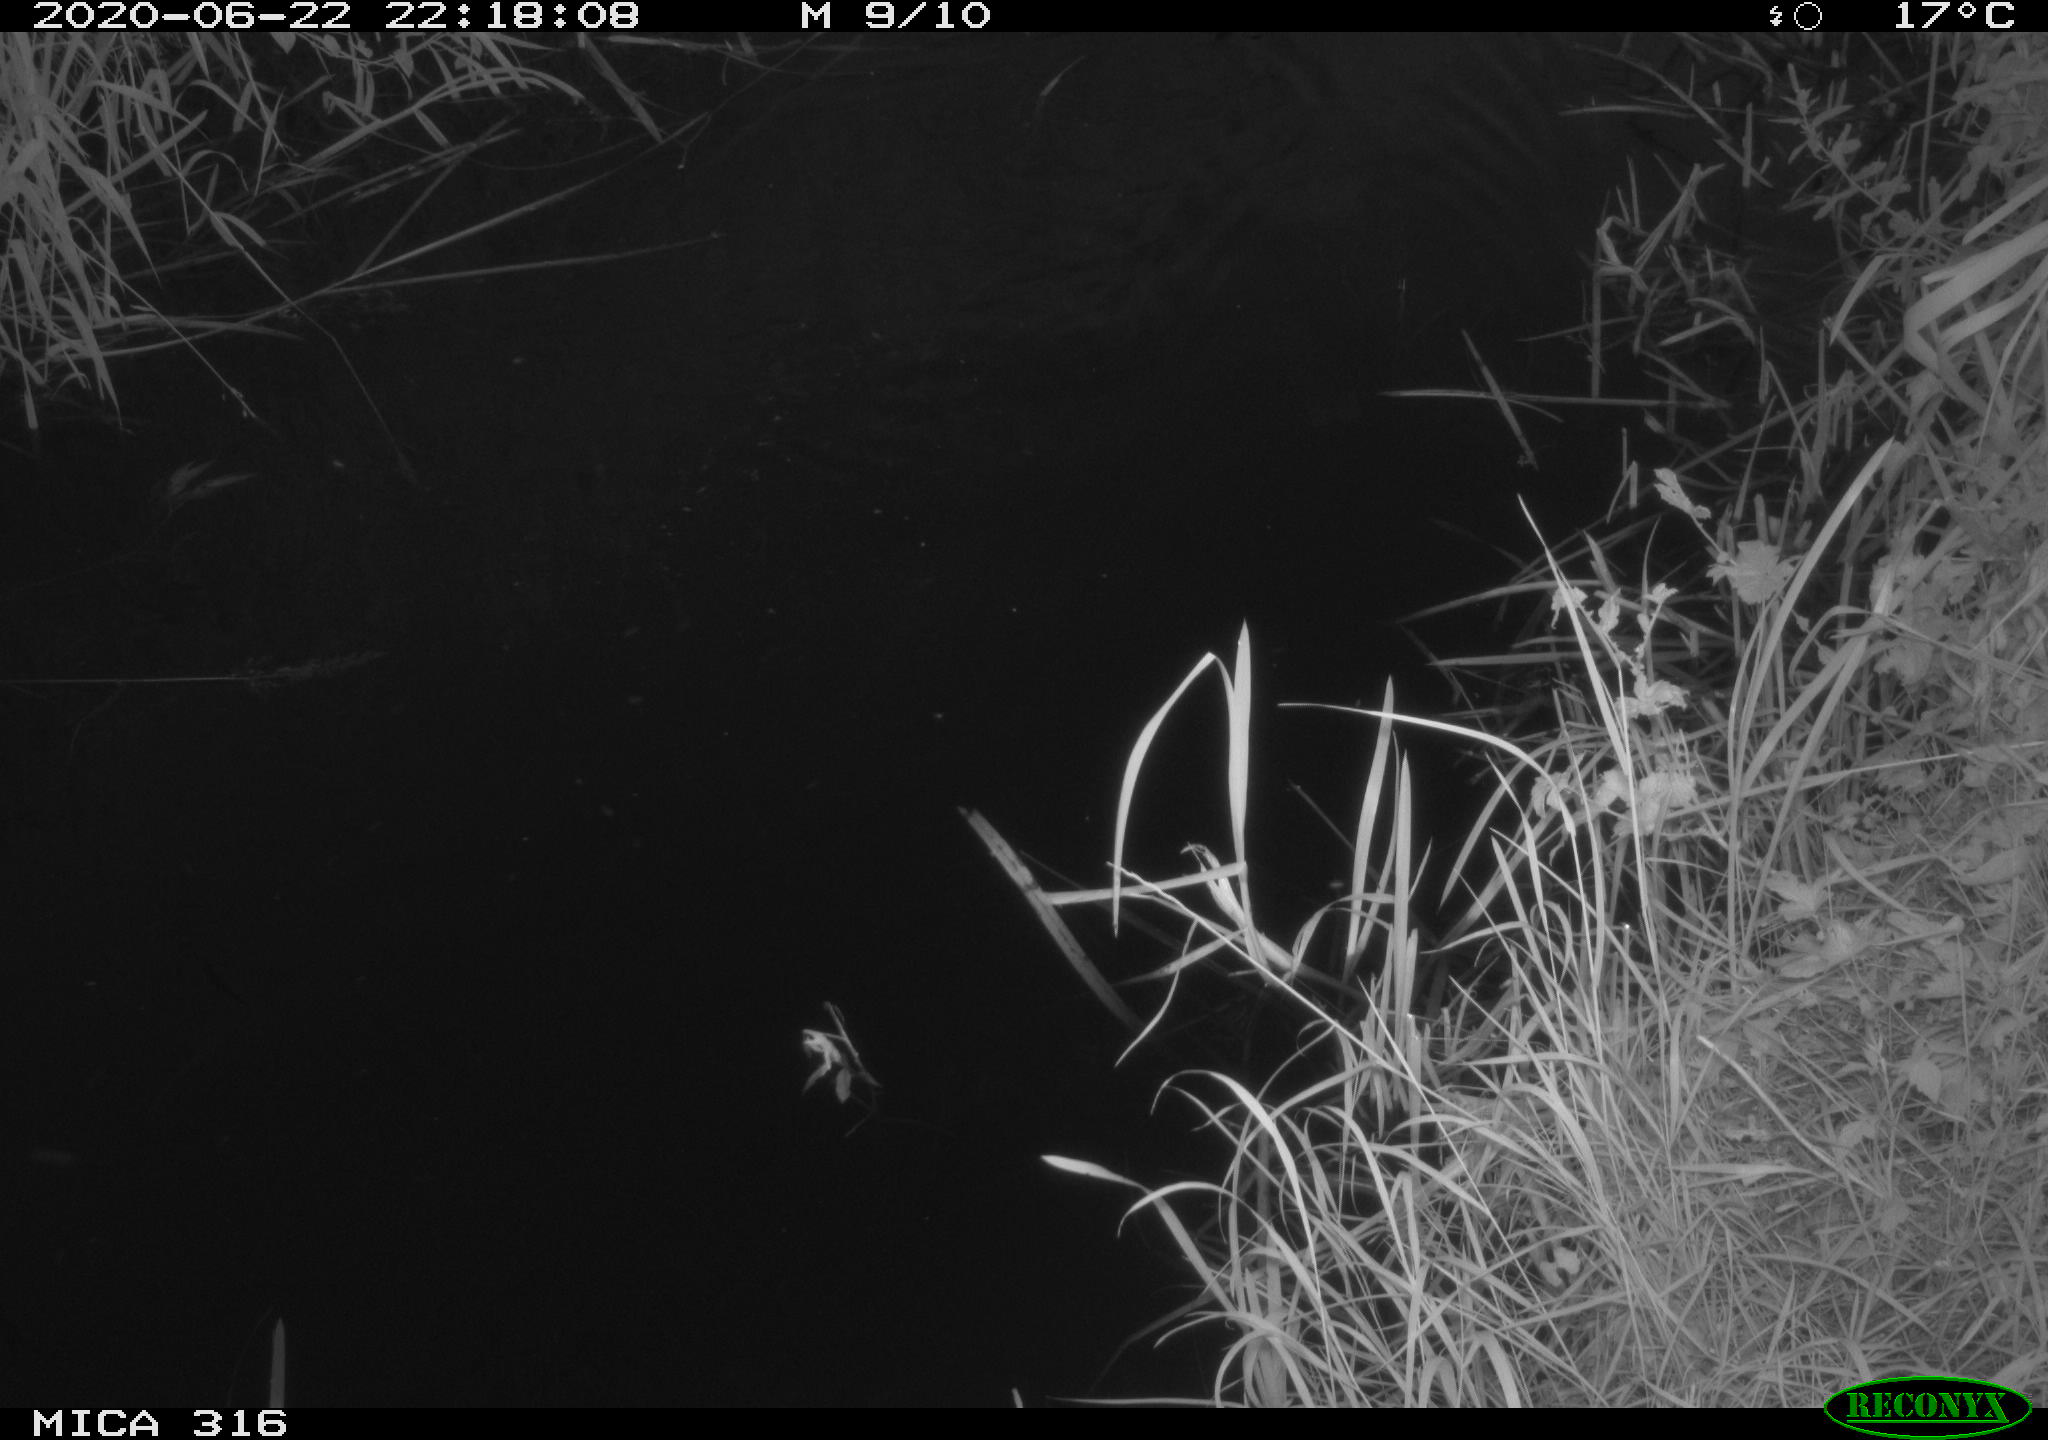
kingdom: Animalia
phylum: Chordata
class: Aves
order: Anseriformes
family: Anatidae
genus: Anas
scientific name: Anas platyrhynchos
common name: Mallard
